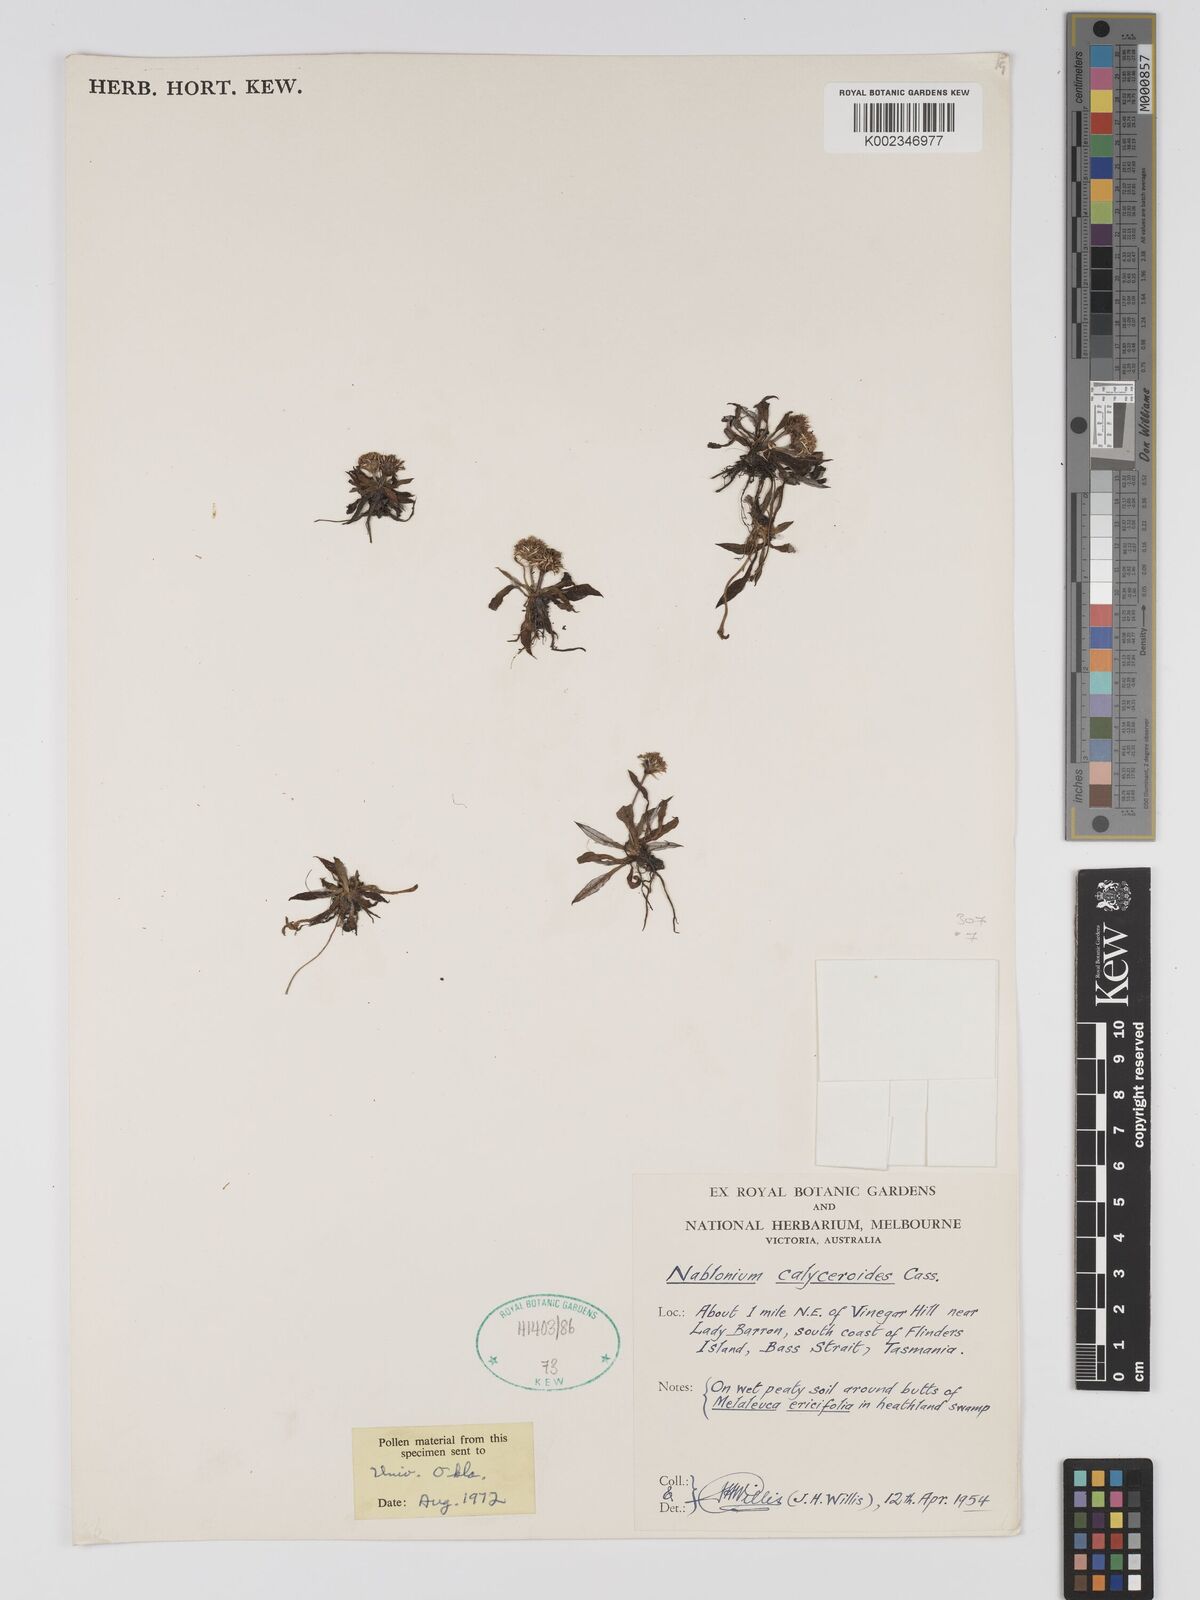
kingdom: Plantae
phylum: Tracheophyta
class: Magnoliopsida
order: Asterales
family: Asteraceae
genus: Ammobium
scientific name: Ammobium calyceroides
